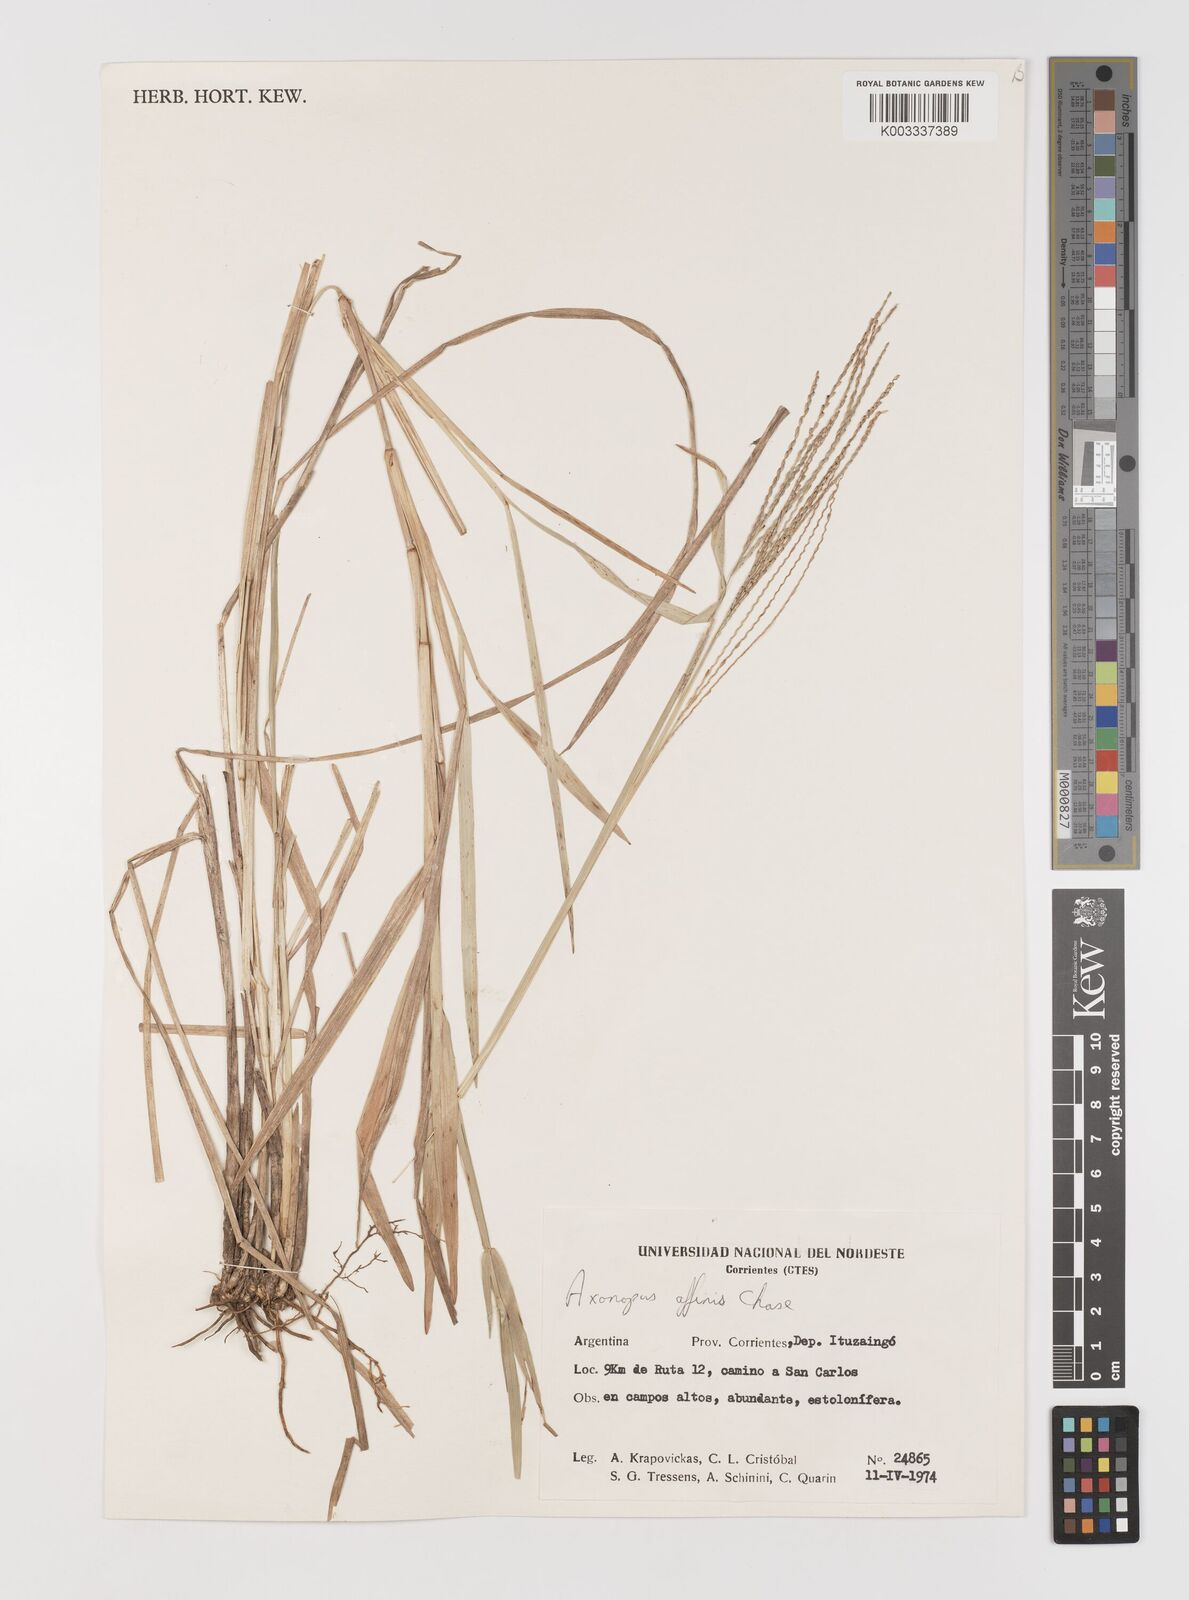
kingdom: Plantae
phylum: Tracheophyta
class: Liliopsida
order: Poales
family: Poaceae
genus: Axonopus
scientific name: Axonopus fissifolius
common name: Common carpetgrass
